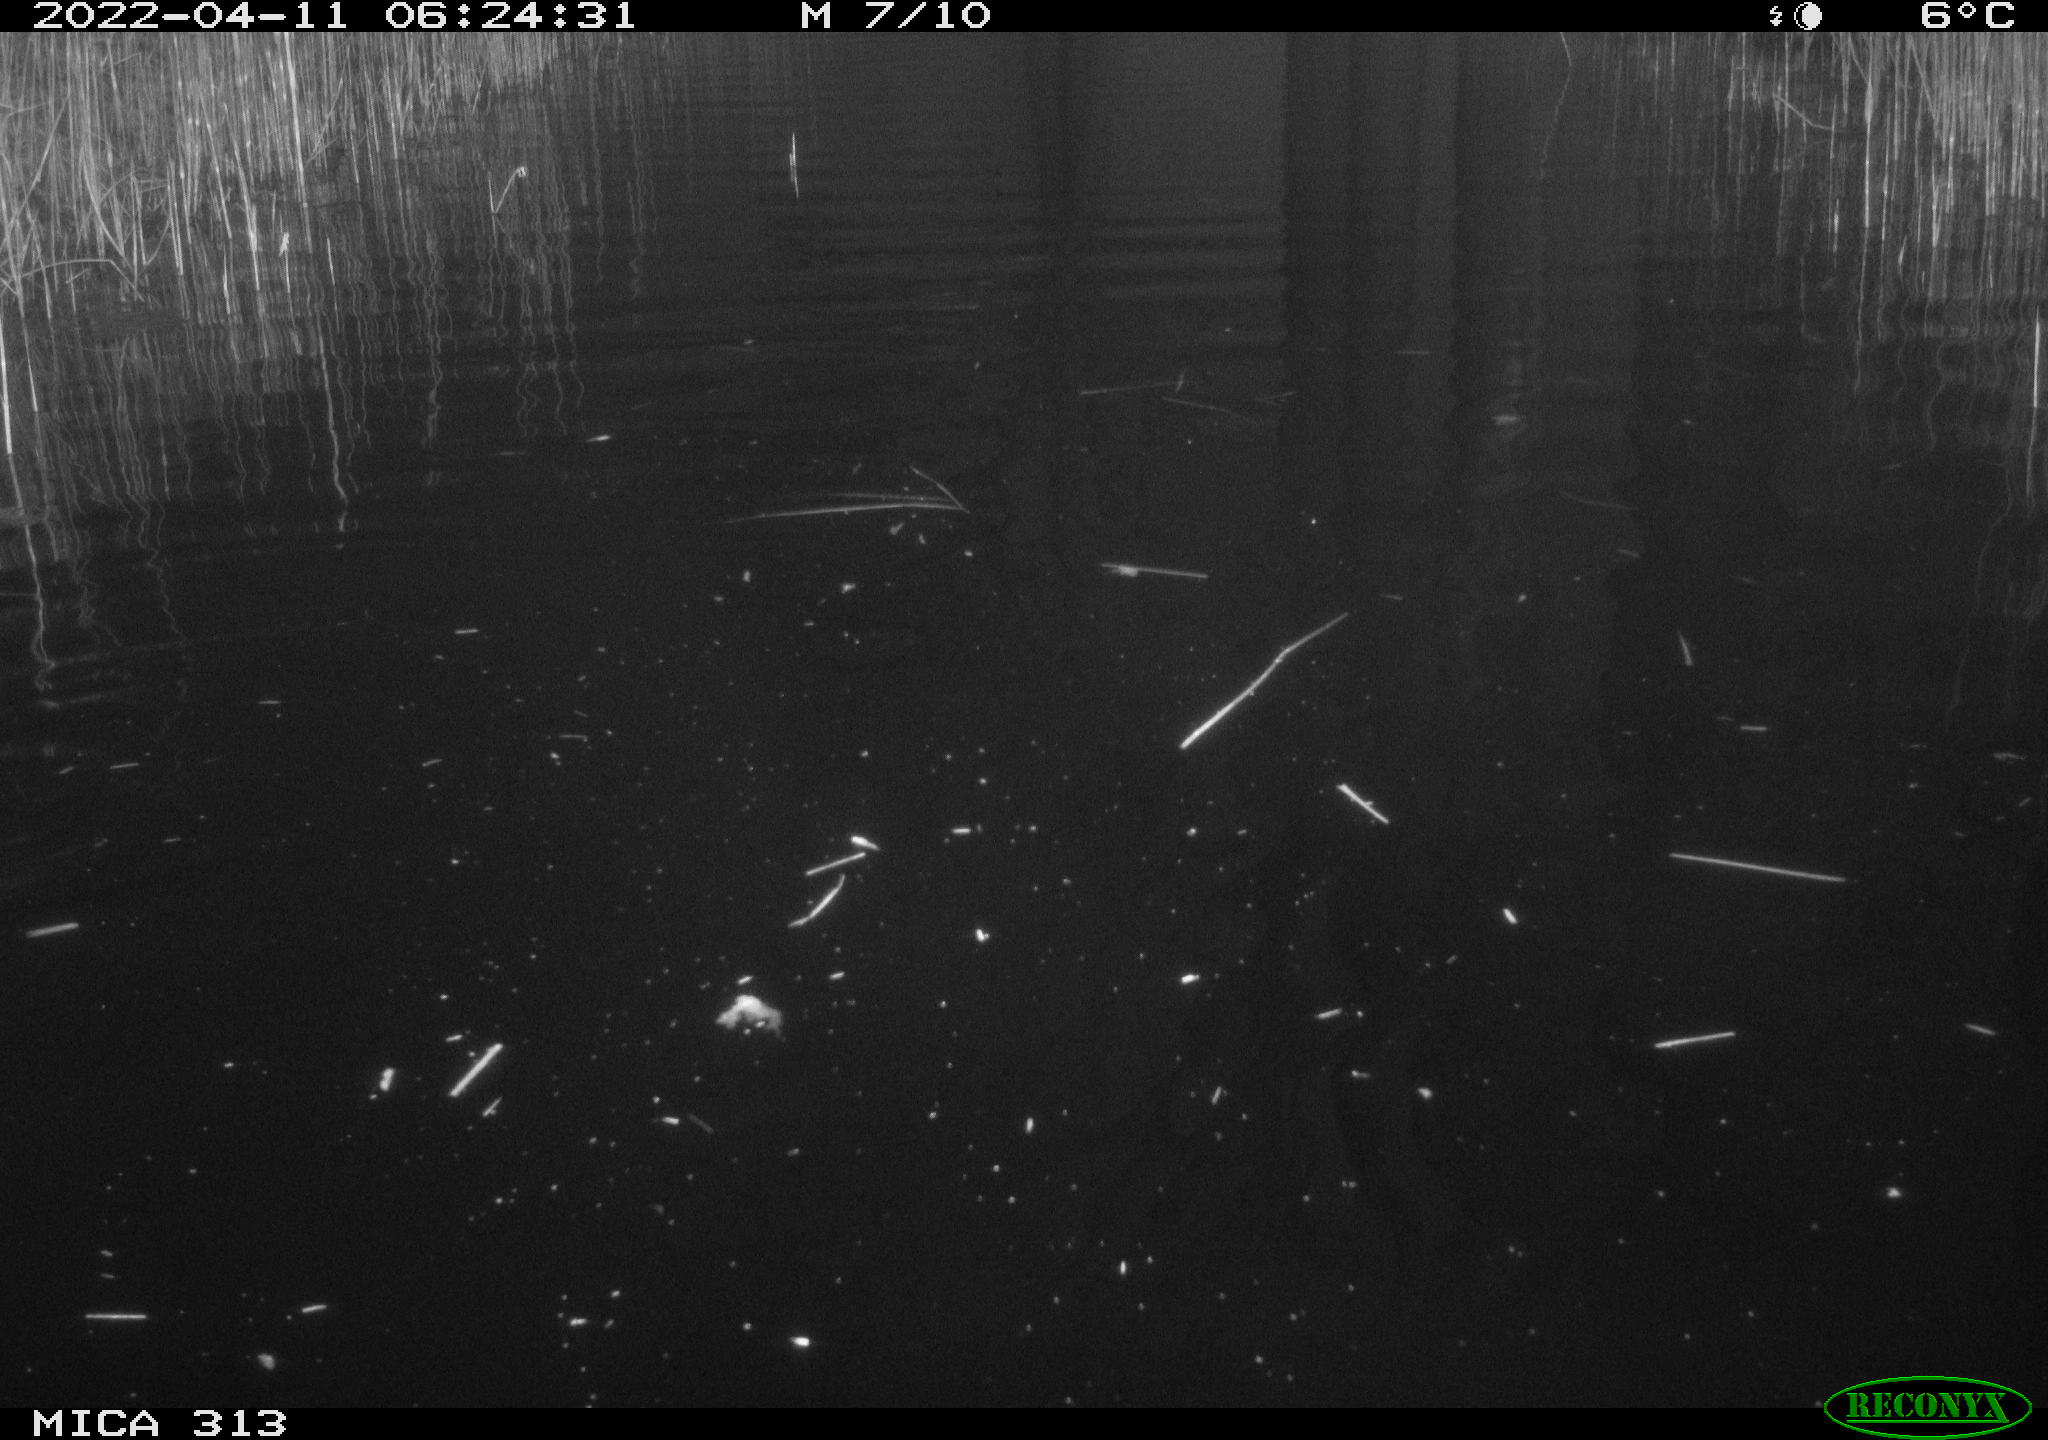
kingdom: Animalia
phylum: Chordata
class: Aves
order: Anseriformes
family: Anatidae
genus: Anas
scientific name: Anas platyrhynchos
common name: Mallard
